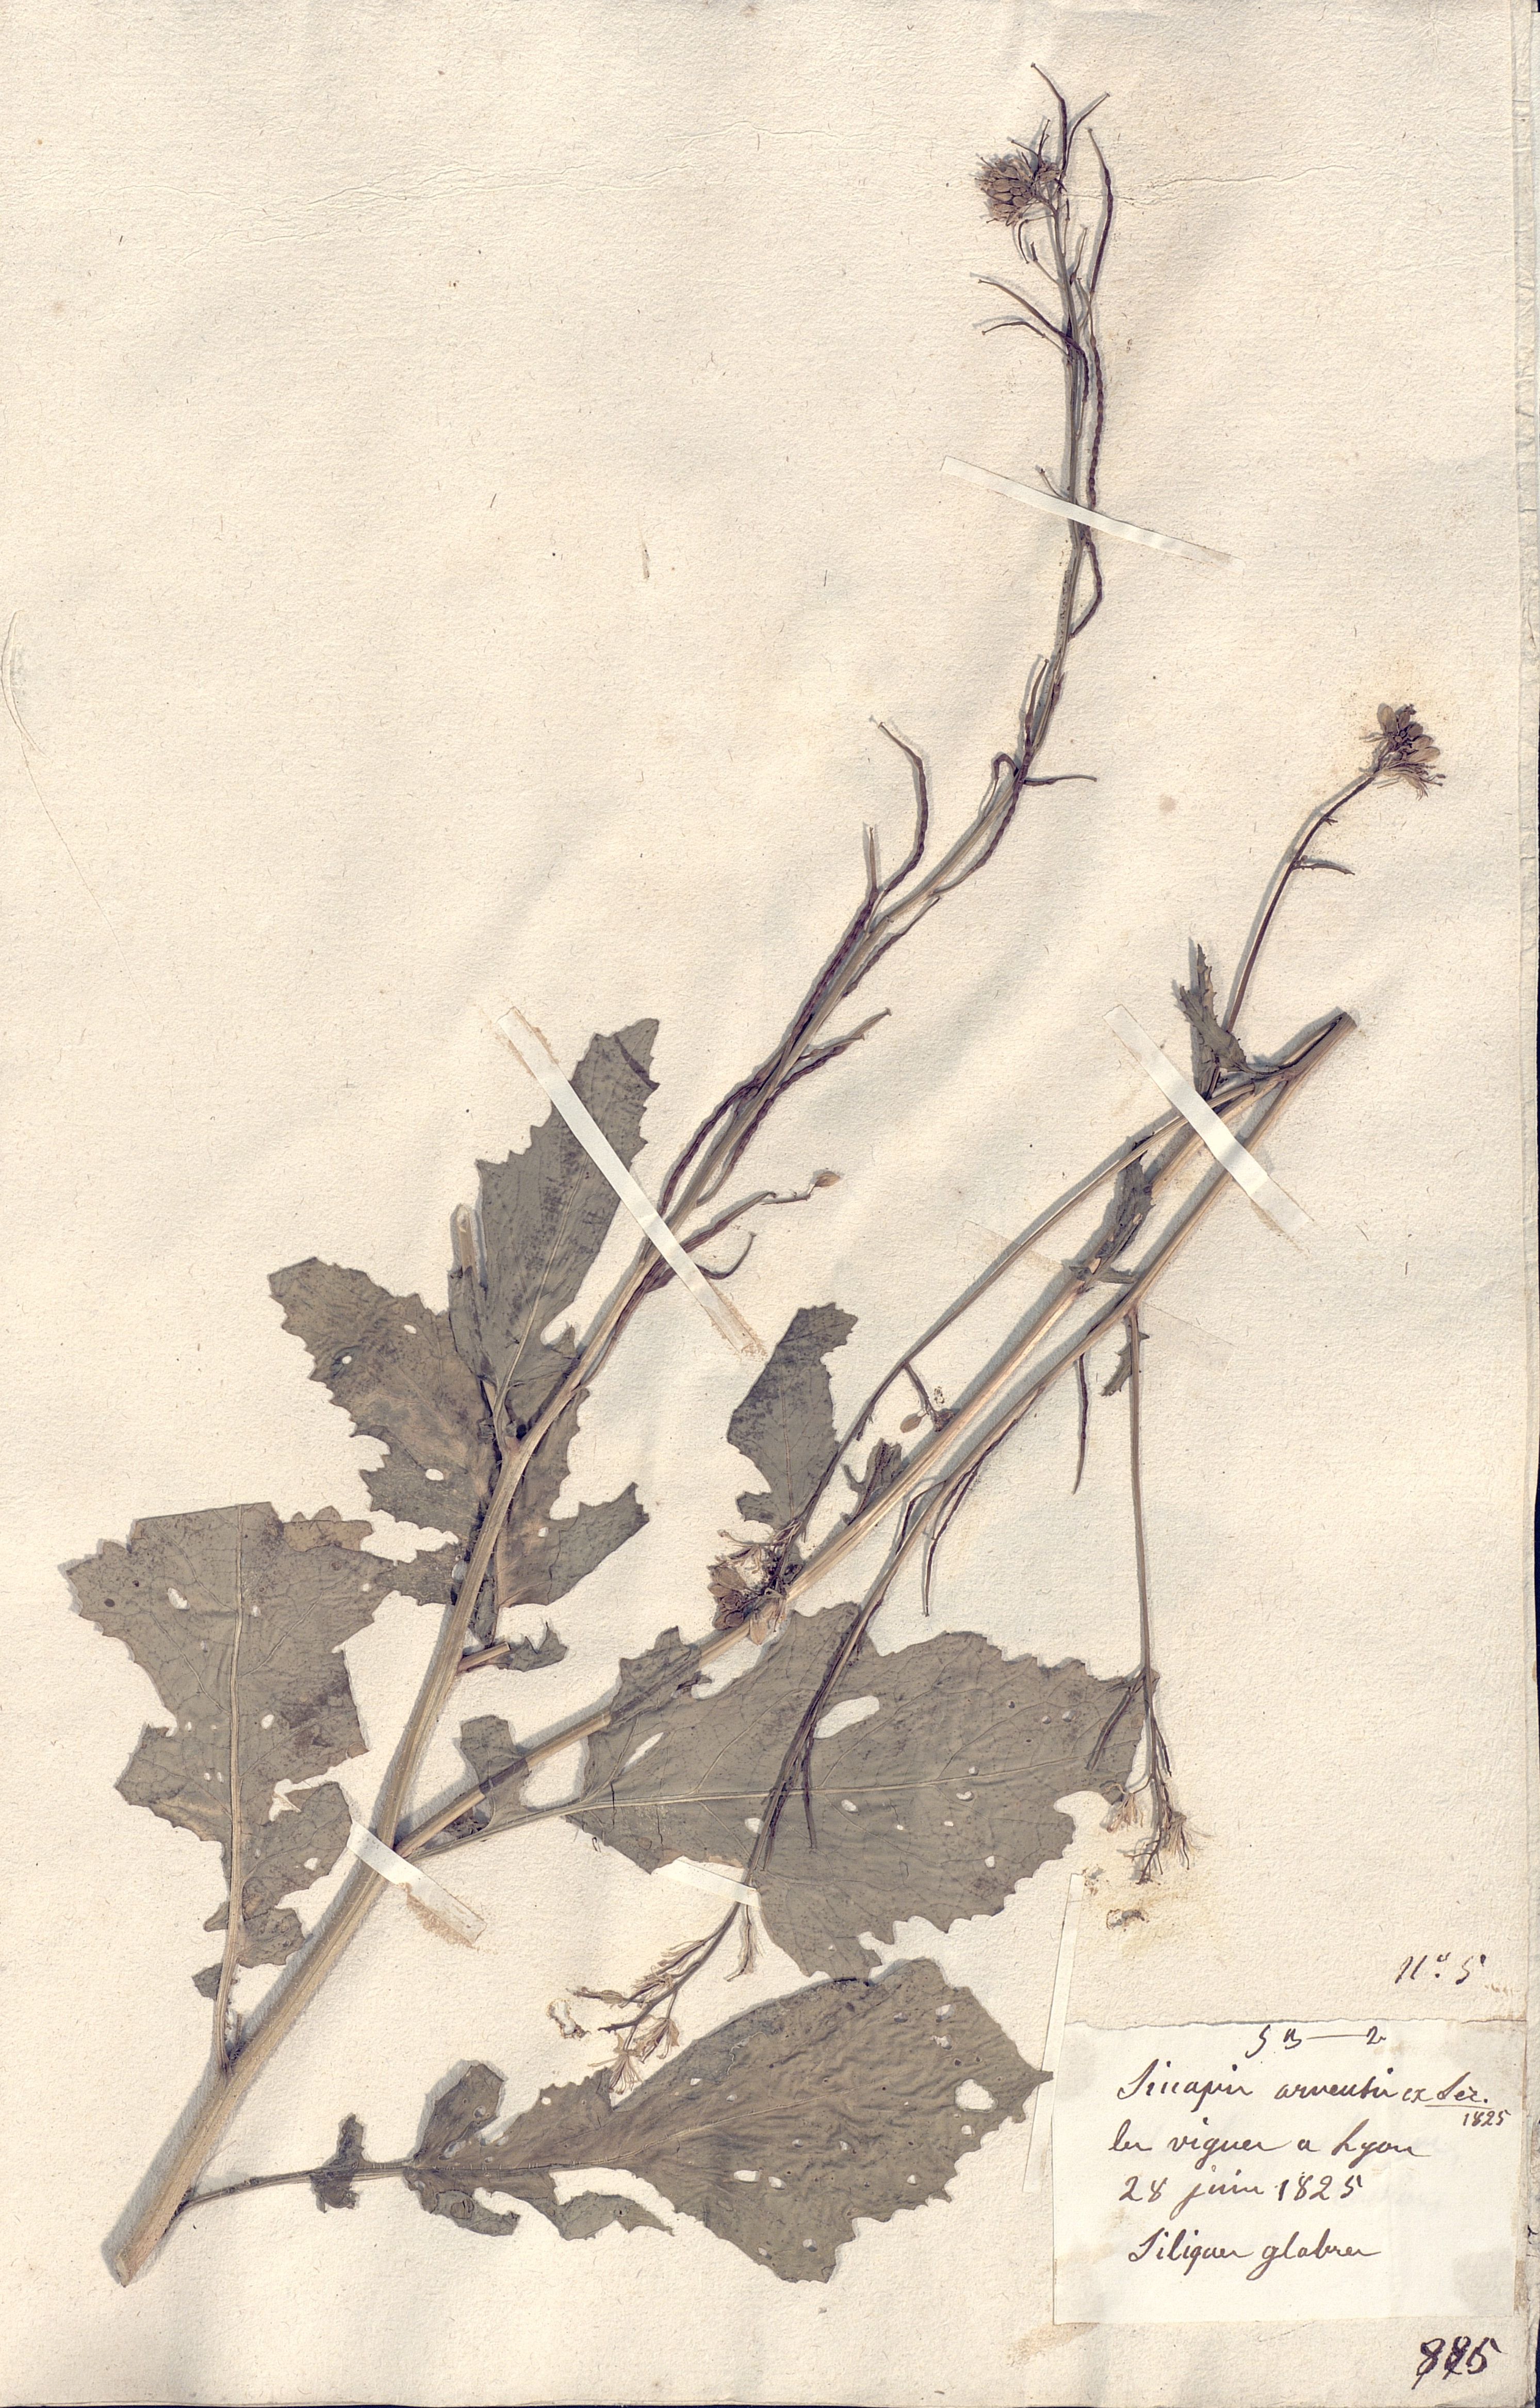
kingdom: Plantae
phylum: Tracheophyta
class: Magnoliopsida
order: Brassicales
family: Brassicaceae
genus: Sinapis
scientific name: Sinapis arvensis
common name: Charlock
